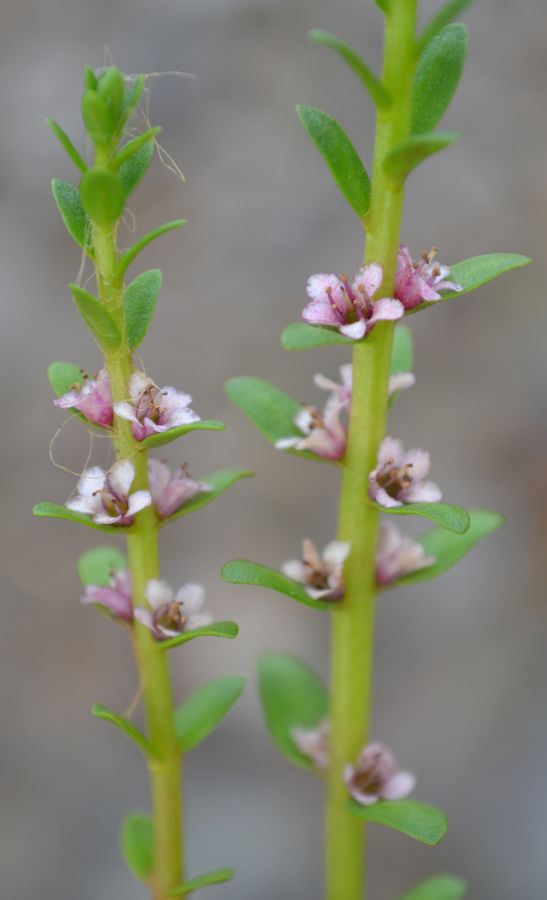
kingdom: Plantae
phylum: Tracheophyta
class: Magnoliopsida
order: Ericales
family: Primulaceae
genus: Lysimachia
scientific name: Lysimachia maritima
